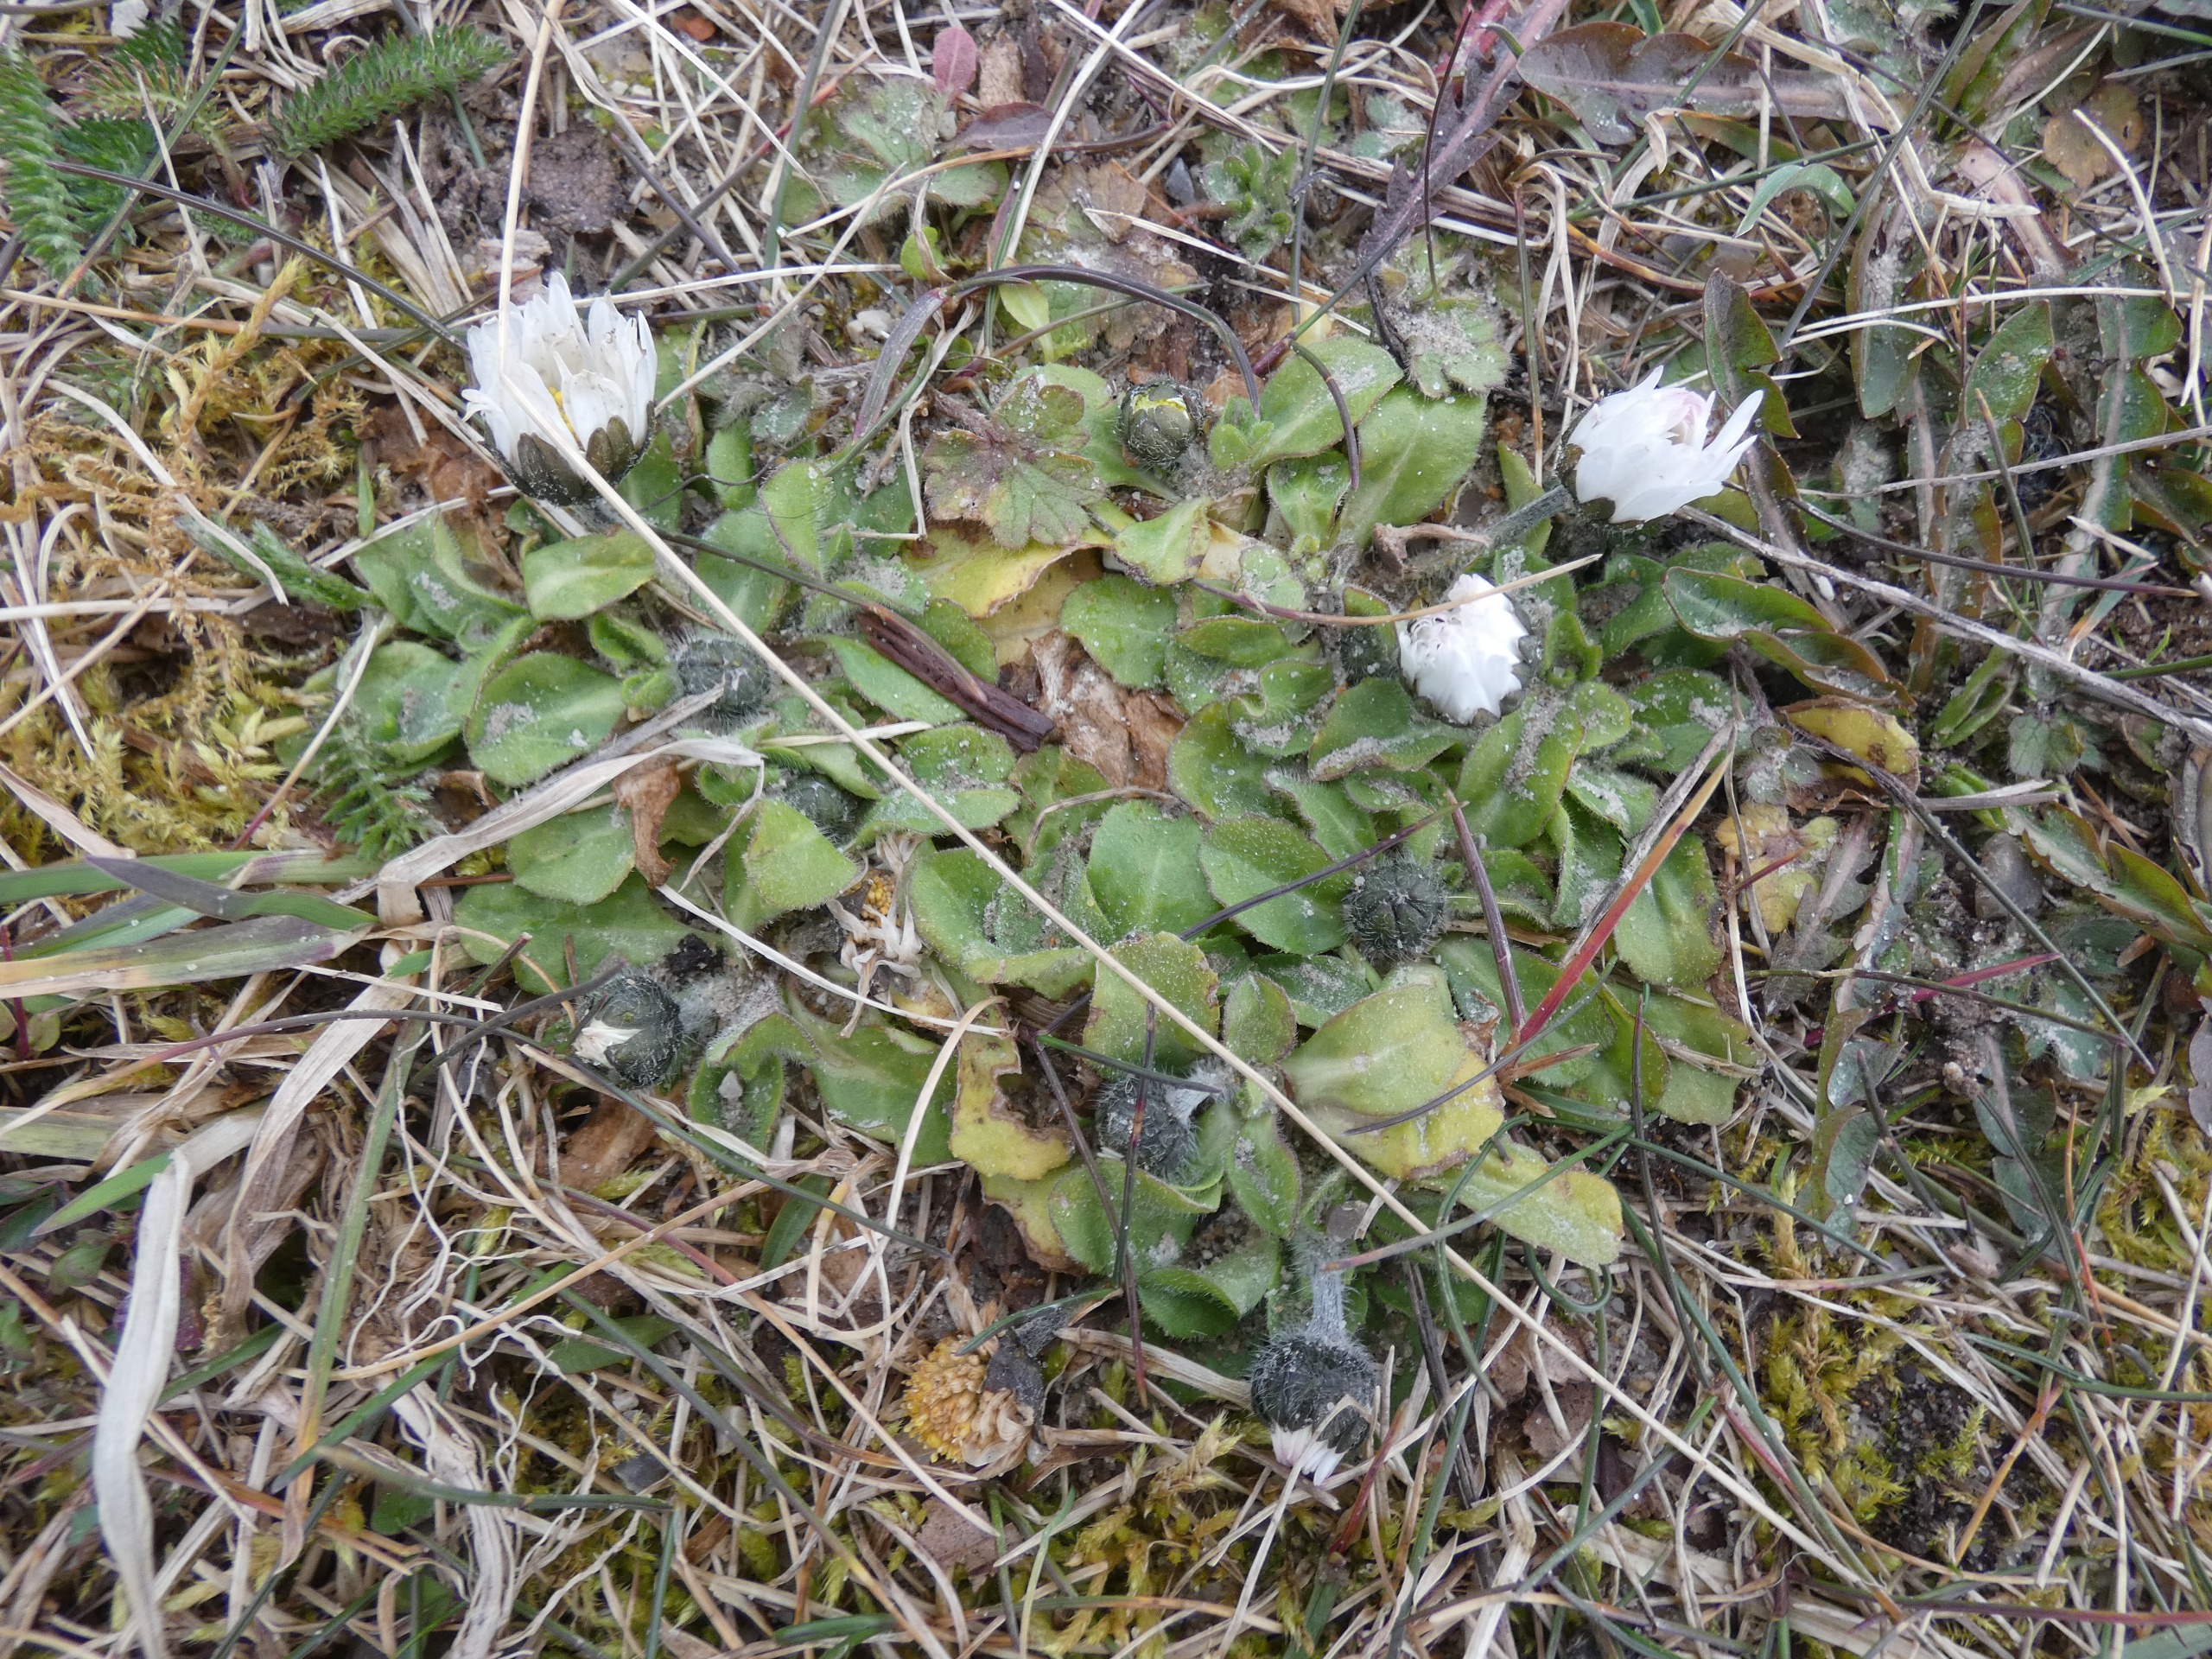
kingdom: Plantae
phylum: Tracheophyta
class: Magnoliopsida
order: Asterales
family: Asteraceae
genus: Bellis
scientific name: Bellis perennis
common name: Tusindfryd
